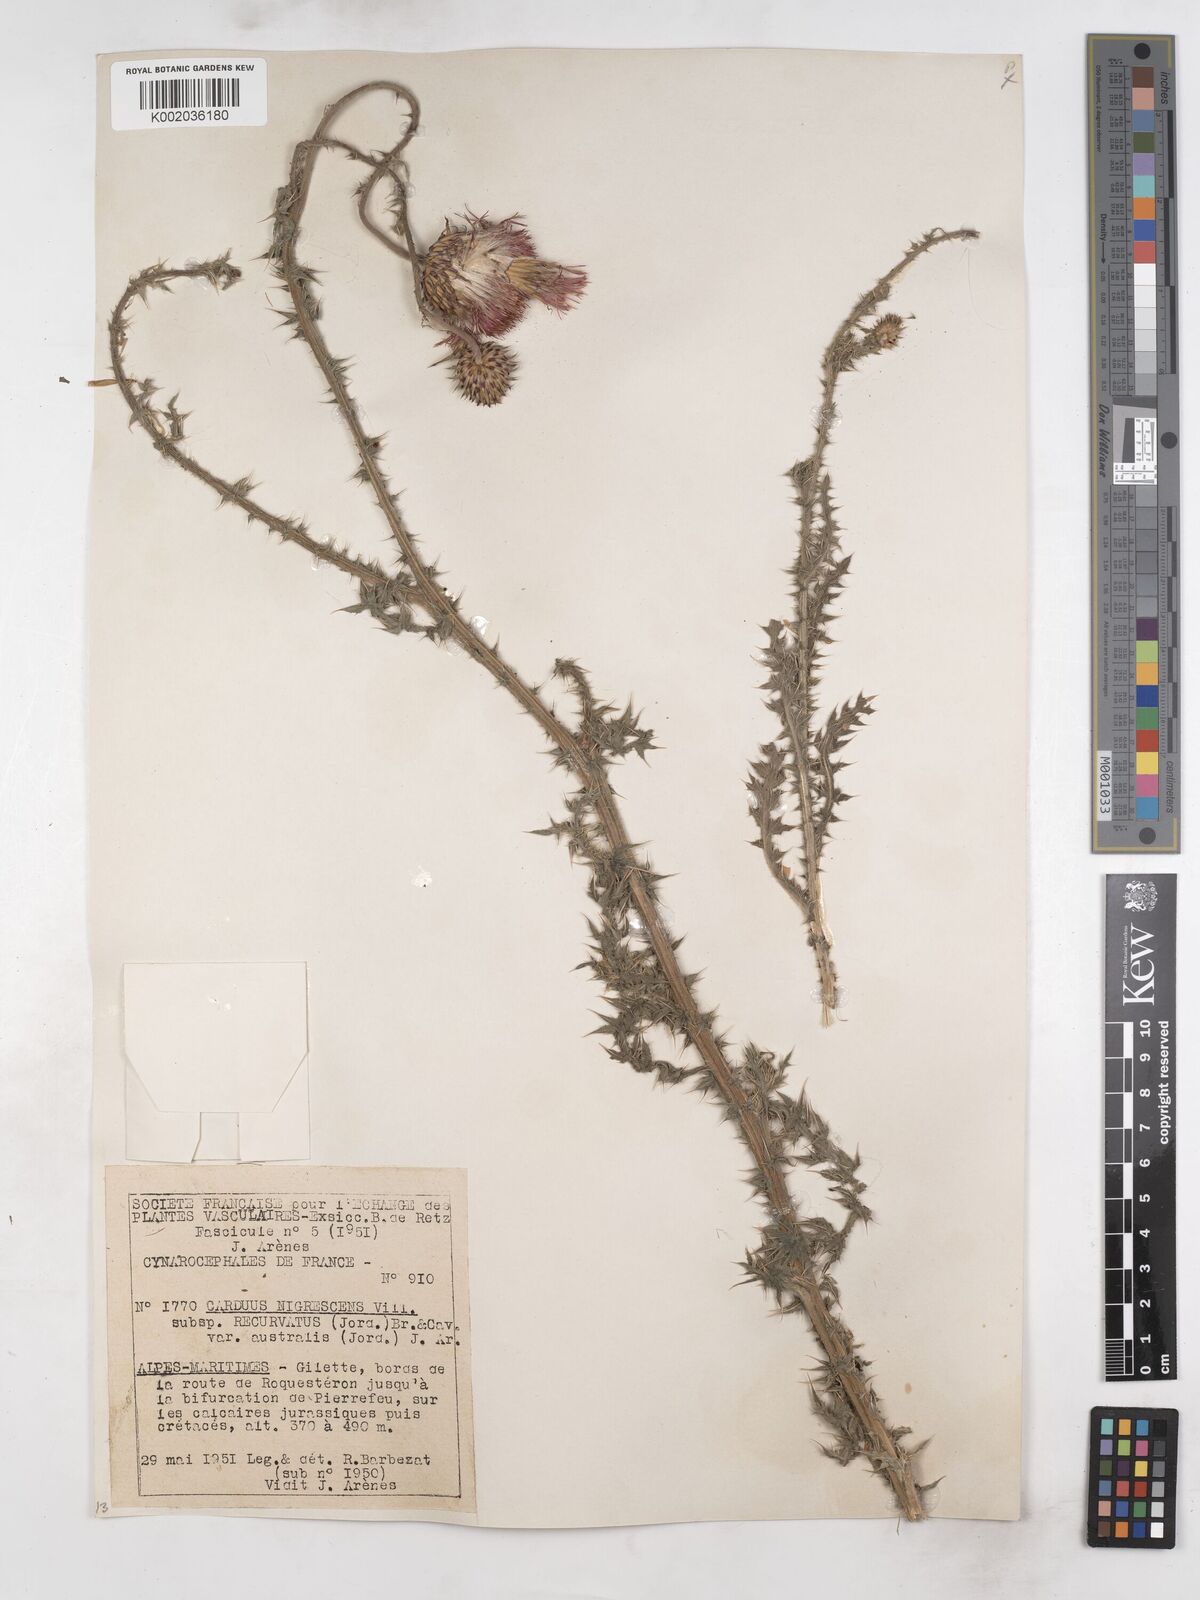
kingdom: Plantae
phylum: Tracheophyta
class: Magnoliopsida
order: Asterales
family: Asteraceae
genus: Carduus
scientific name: Carduus nigrescens
